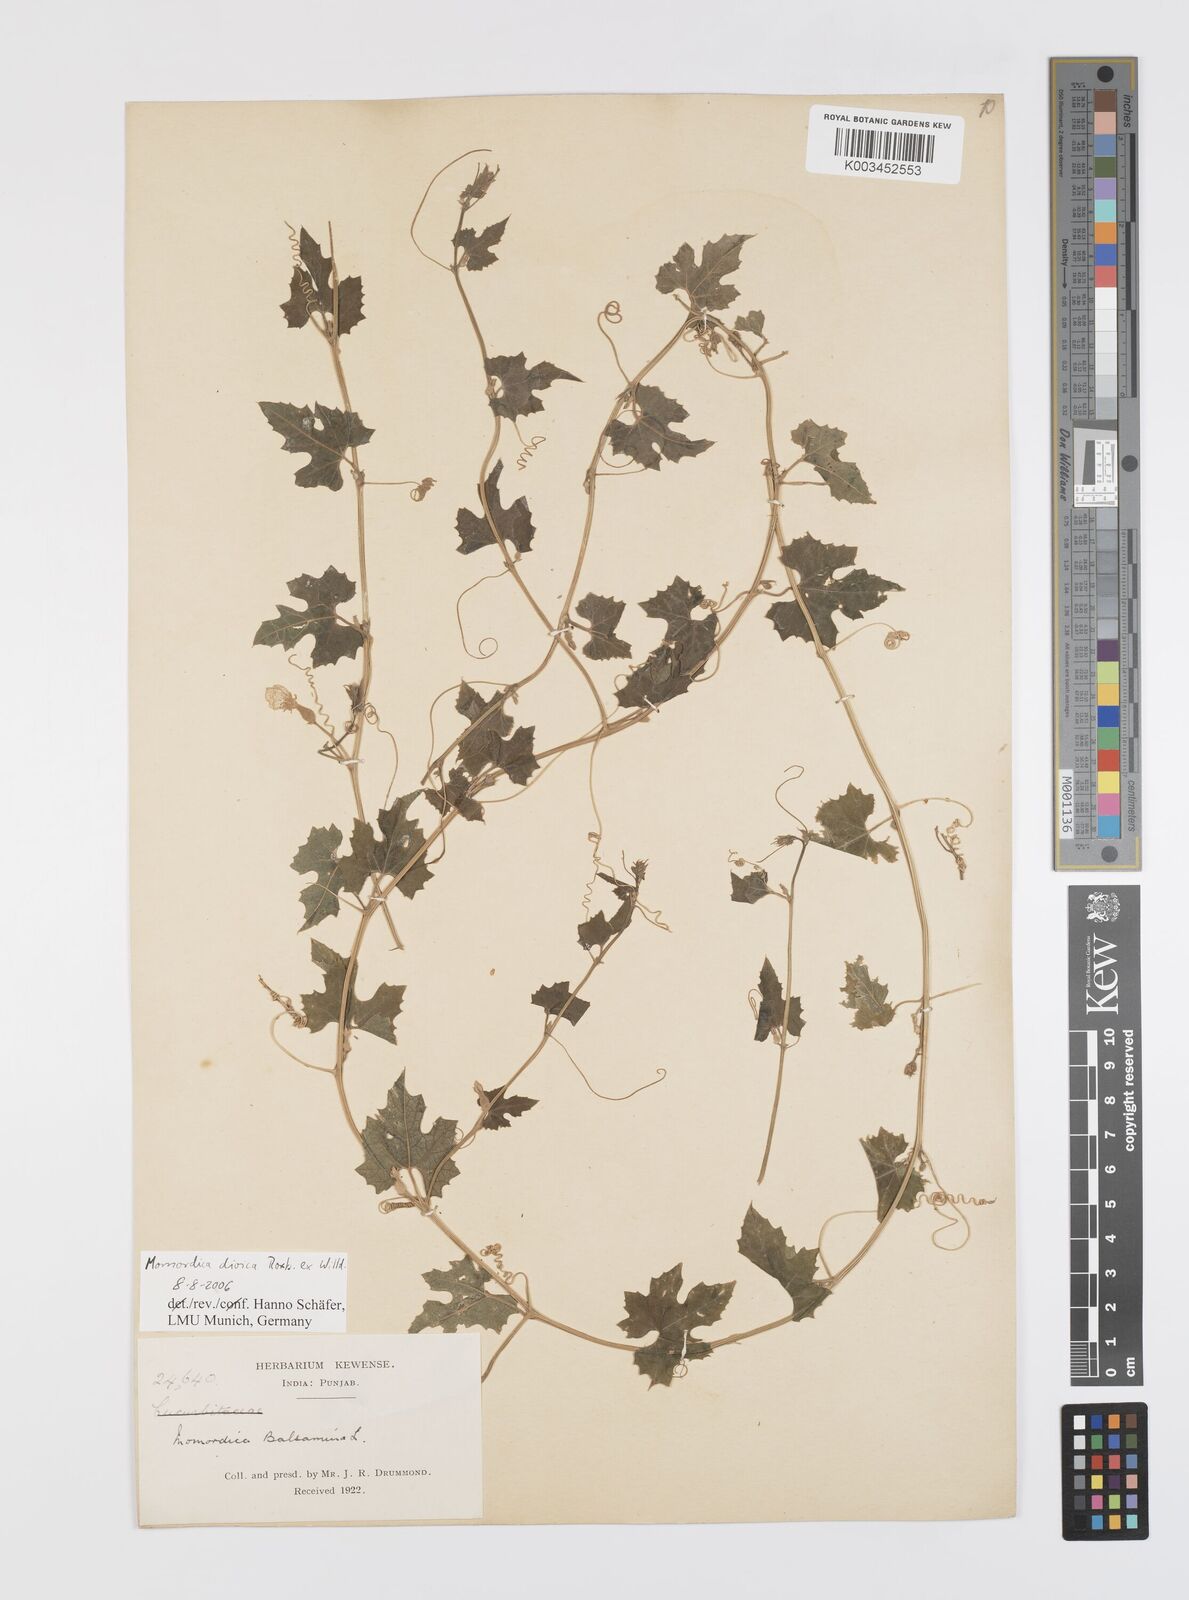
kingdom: Plantae
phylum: Tracheophyta
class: Magnoliopsida
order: Cucurbitales
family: Cucurbitaceae
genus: Momordica
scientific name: Momordica dioica
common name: Spine gourd
